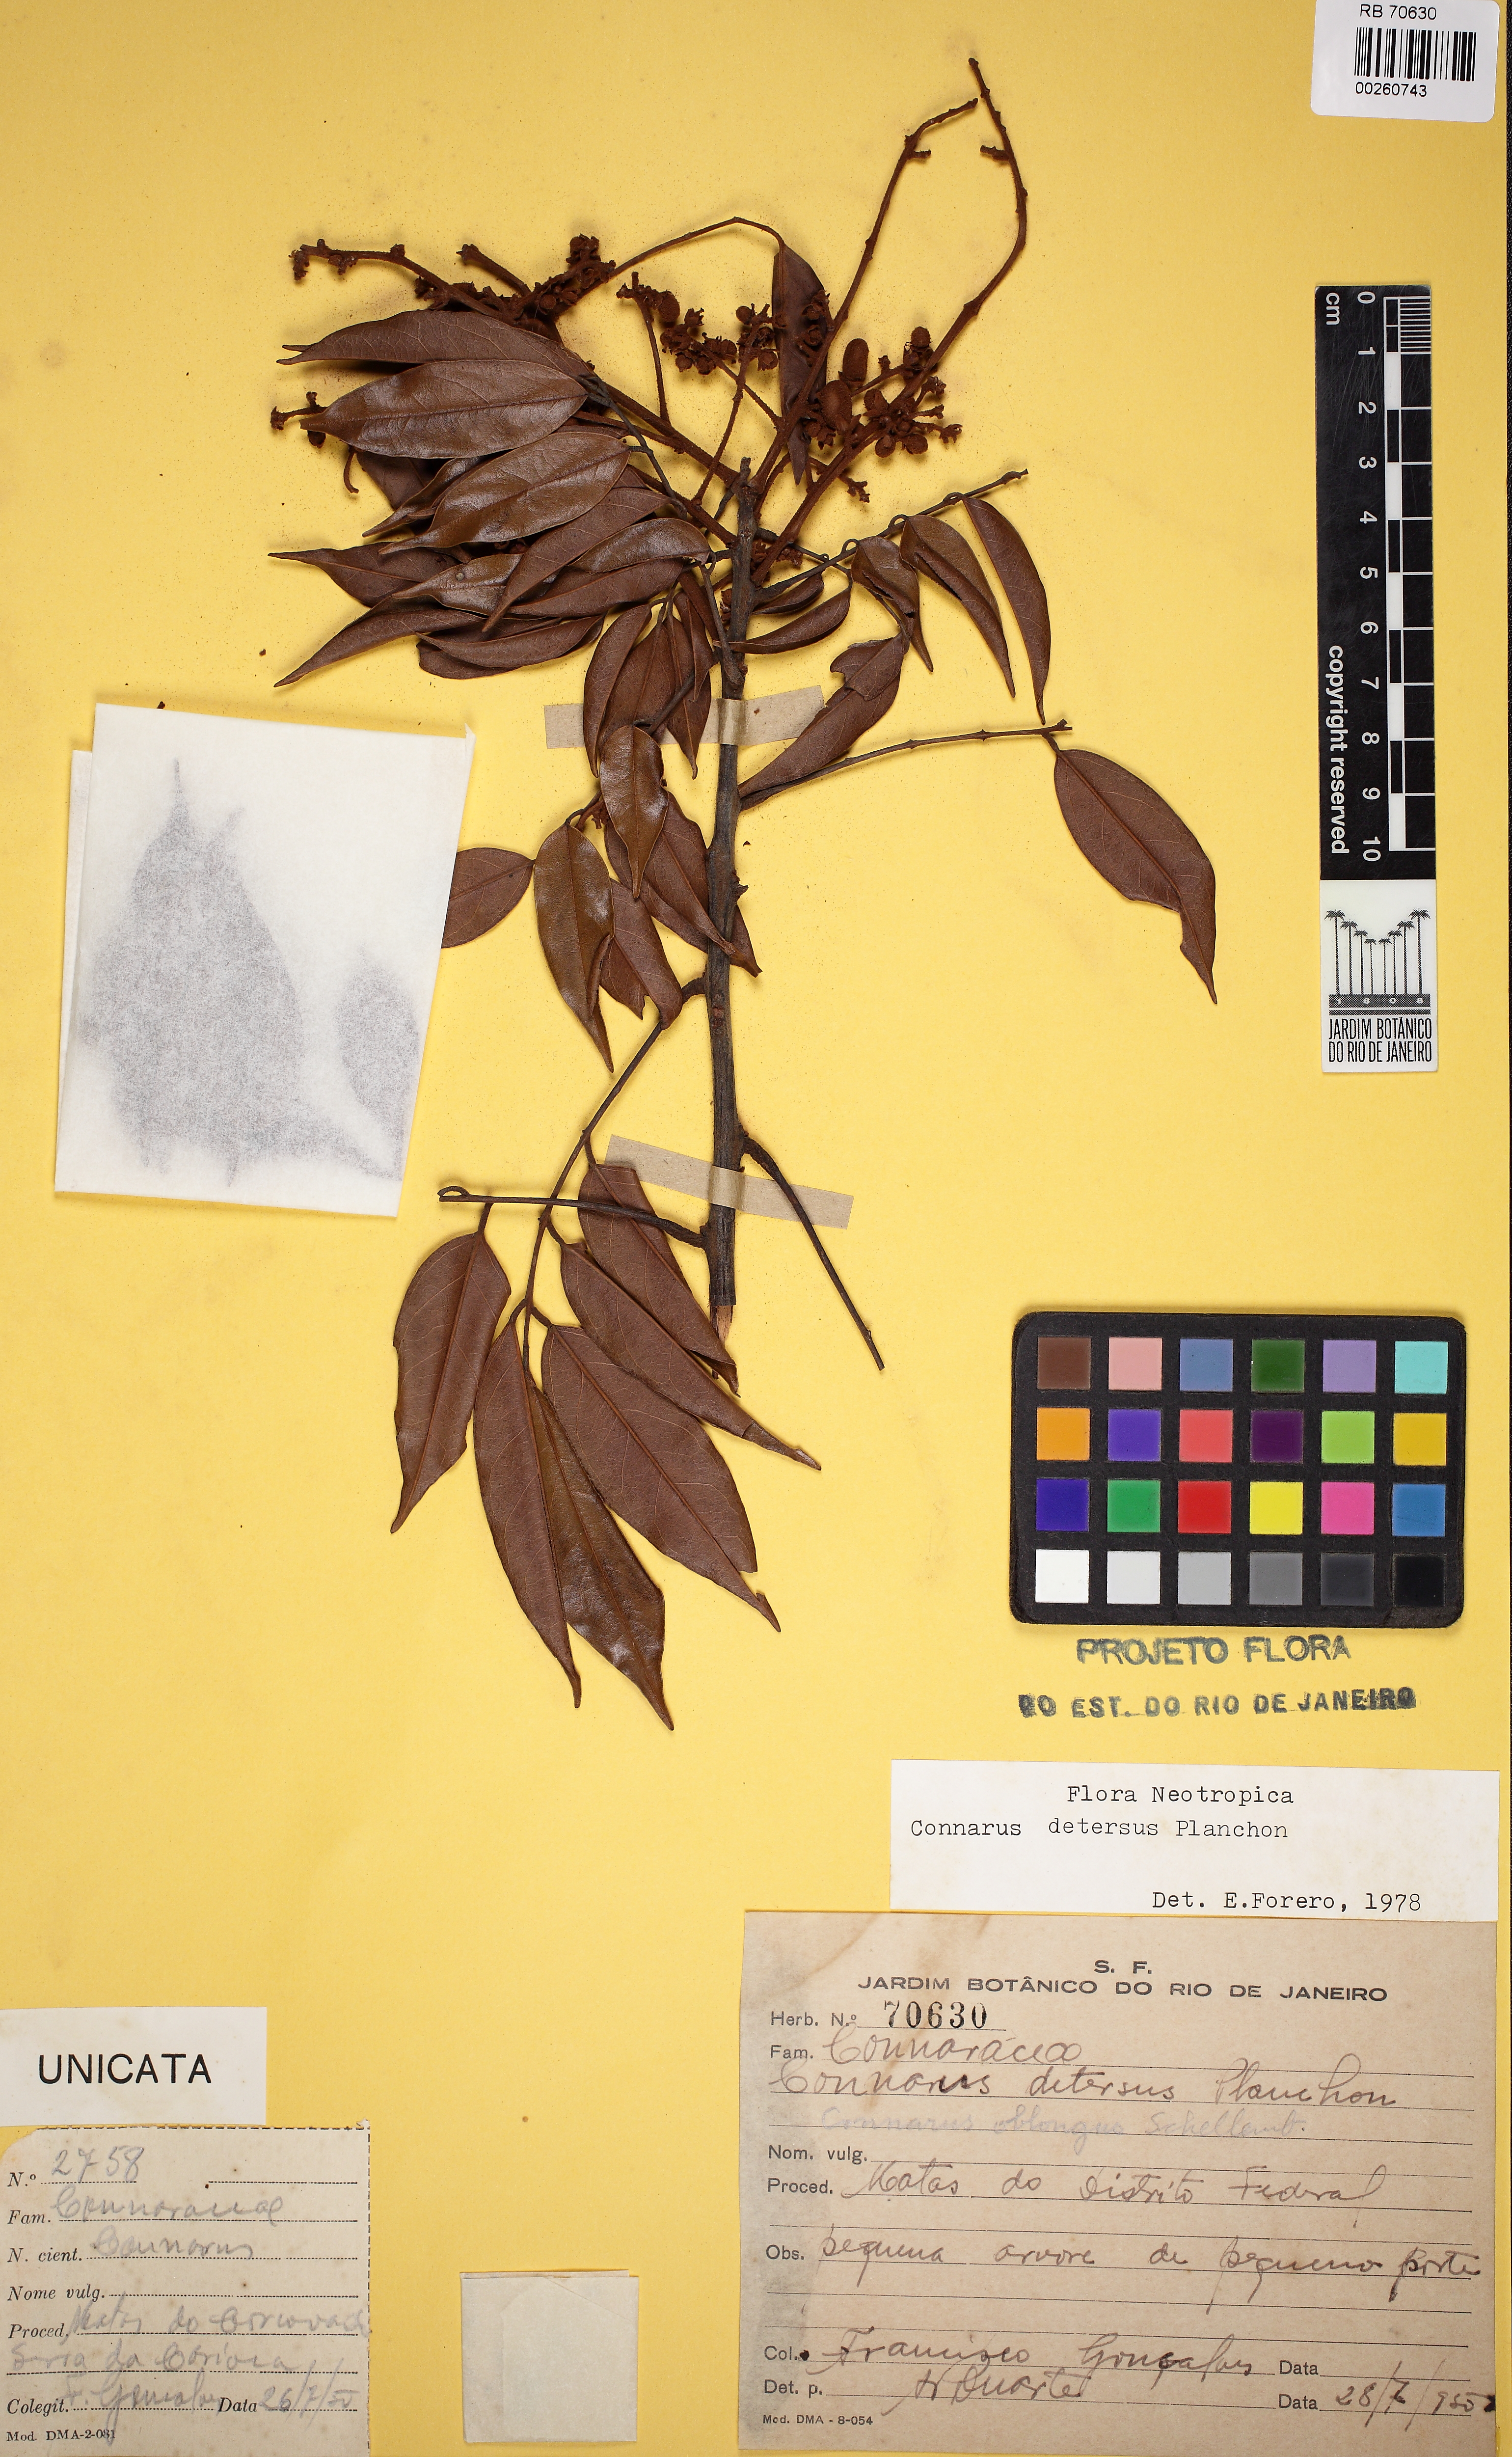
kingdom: Plantae
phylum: Tracheophyta
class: Magnoliopsida
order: Oxalidales
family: Connaraceae
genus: Connarus
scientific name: Connarus detersus
